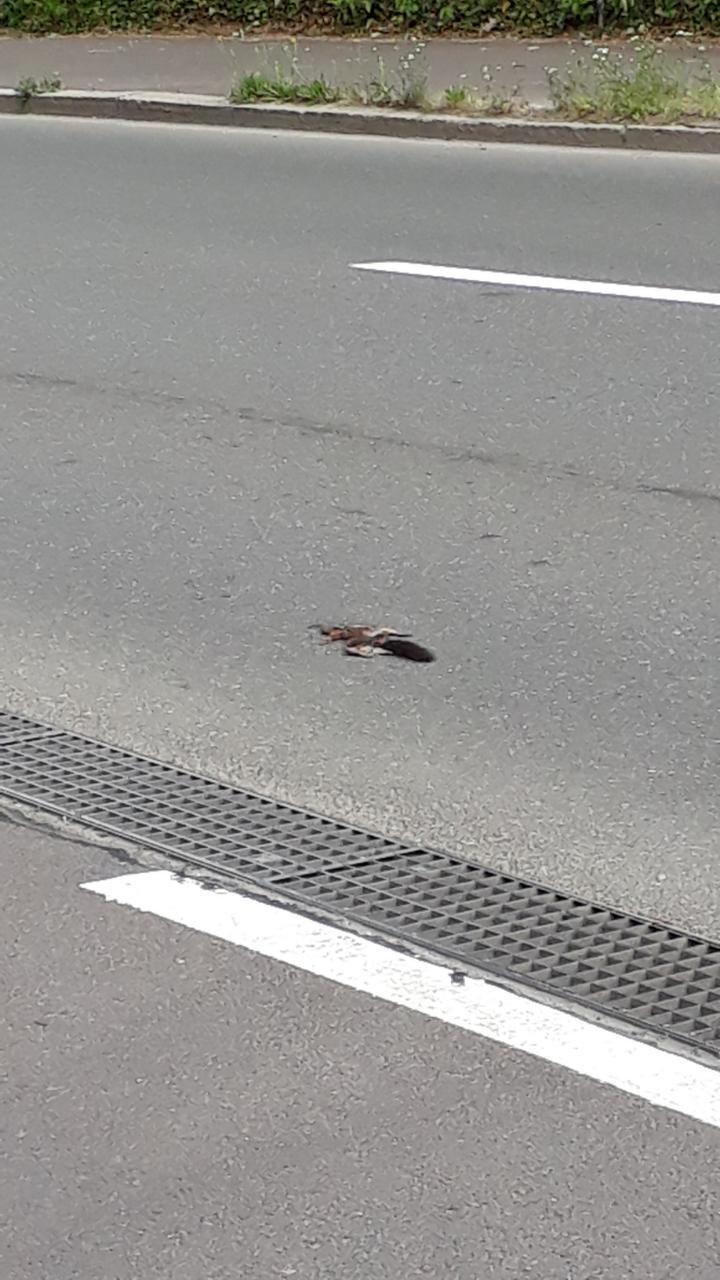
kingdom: Animalia
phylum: Chordata
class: Mammalia
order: Rodentia
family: Sciuridae
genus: Sciurus
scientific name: Sciurus vulgaris
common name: Eurasian red squirrel
